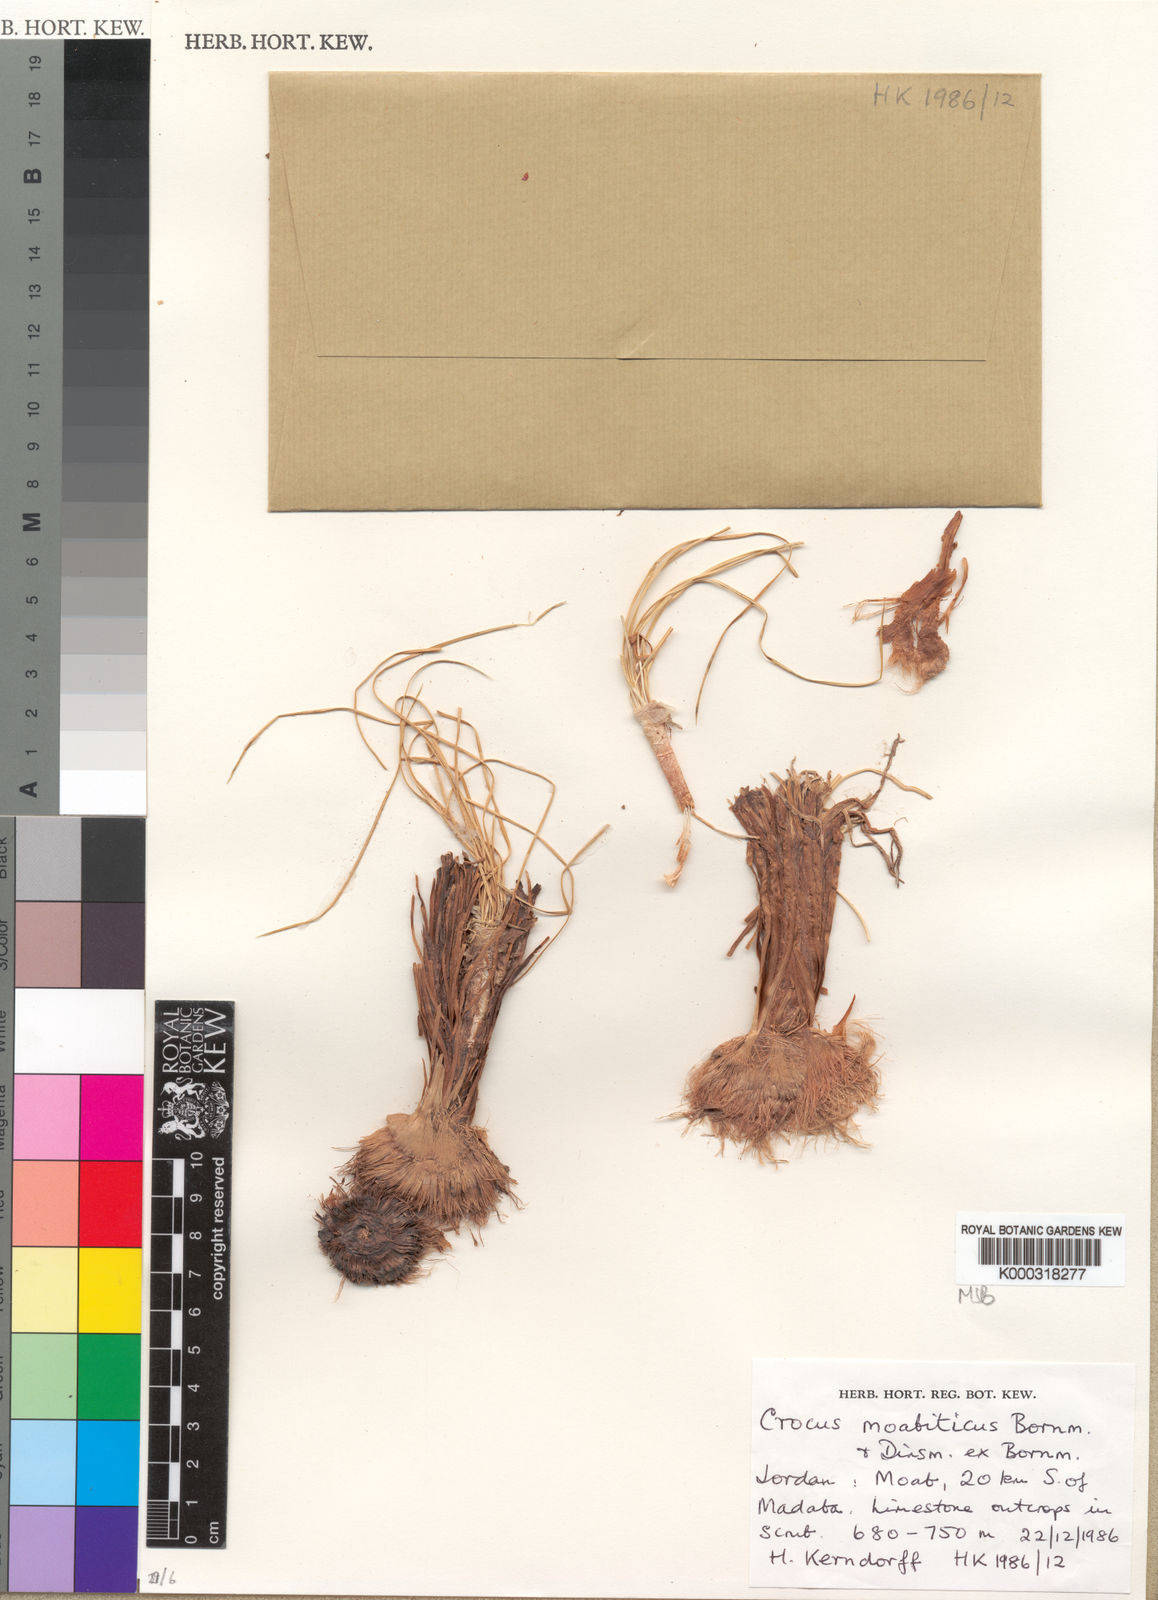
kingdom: Plantae
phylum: Tracheophyta
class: Liliopsida
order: Asparagales
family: Iridaceae
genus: Crocus
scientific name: Crocus moabiticus
